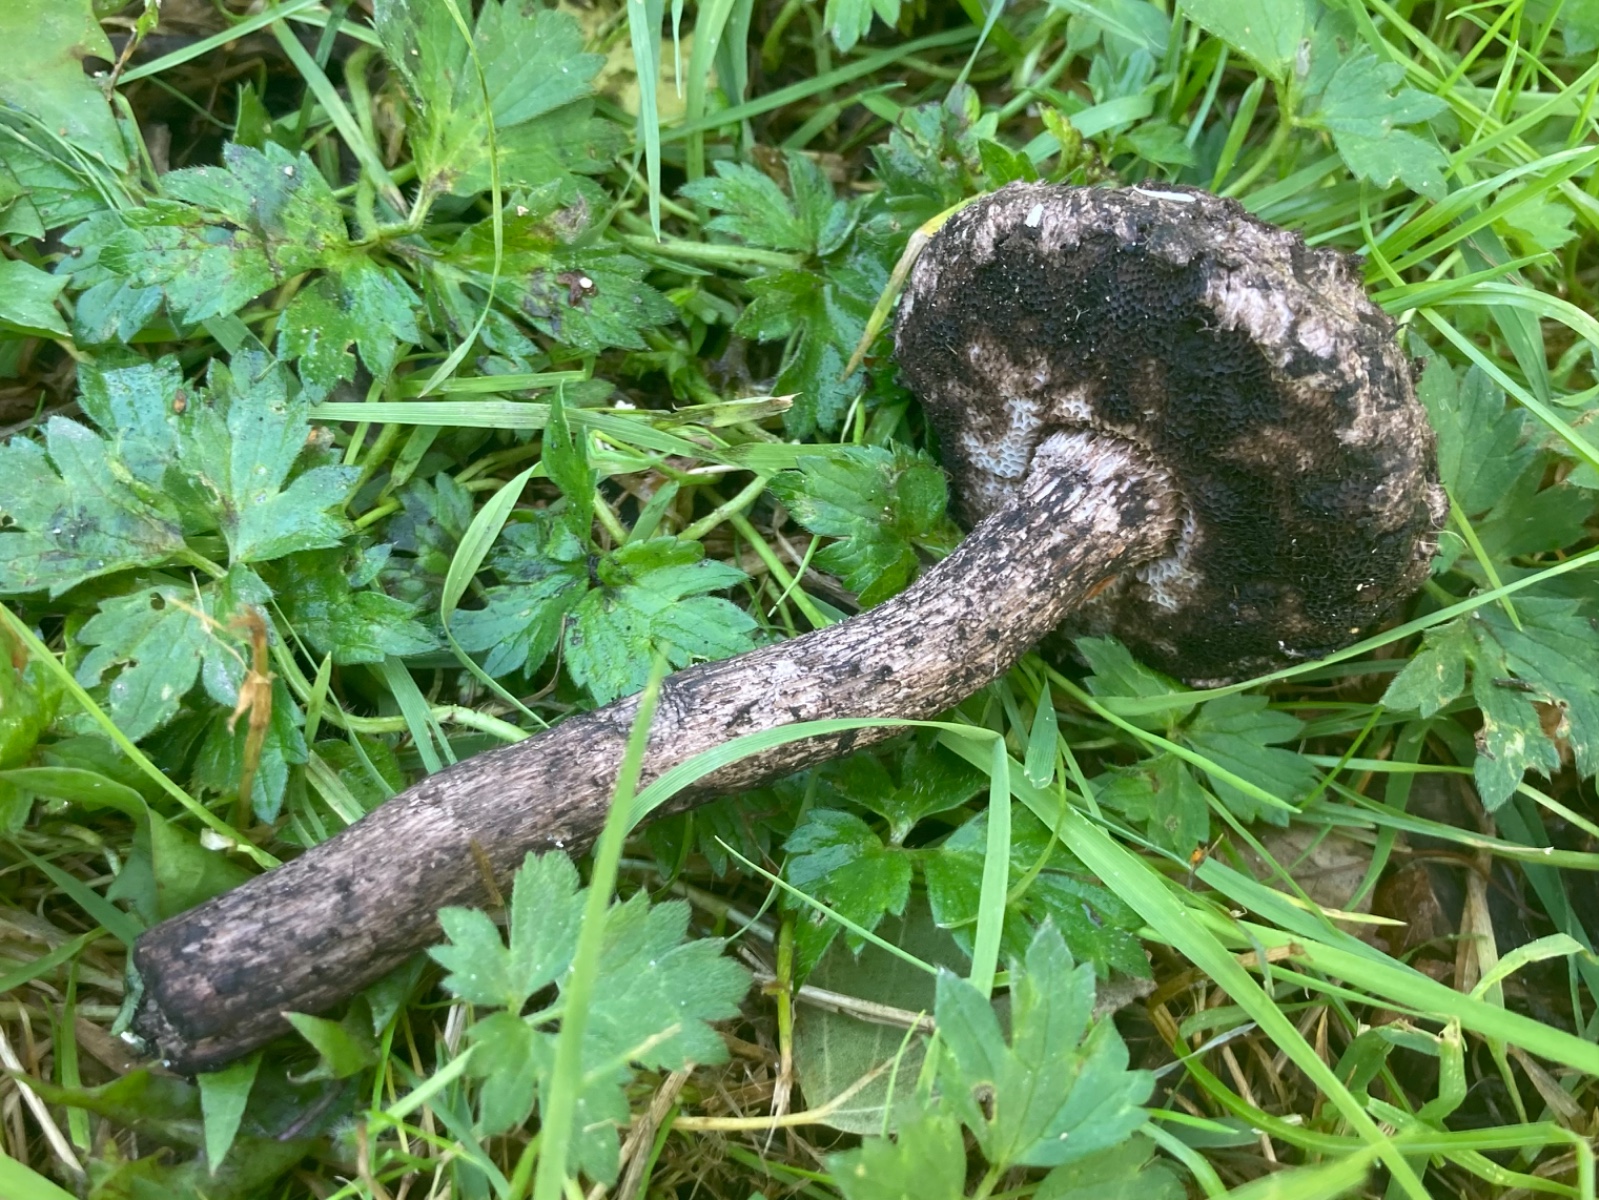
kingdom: Fungi
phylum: Basidiomycota
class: Agaricomycetes
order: Boletales
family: Boletaceae
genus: Strobilomyces
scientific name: Strobilomyces strobilaceus
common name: koglerørhat
